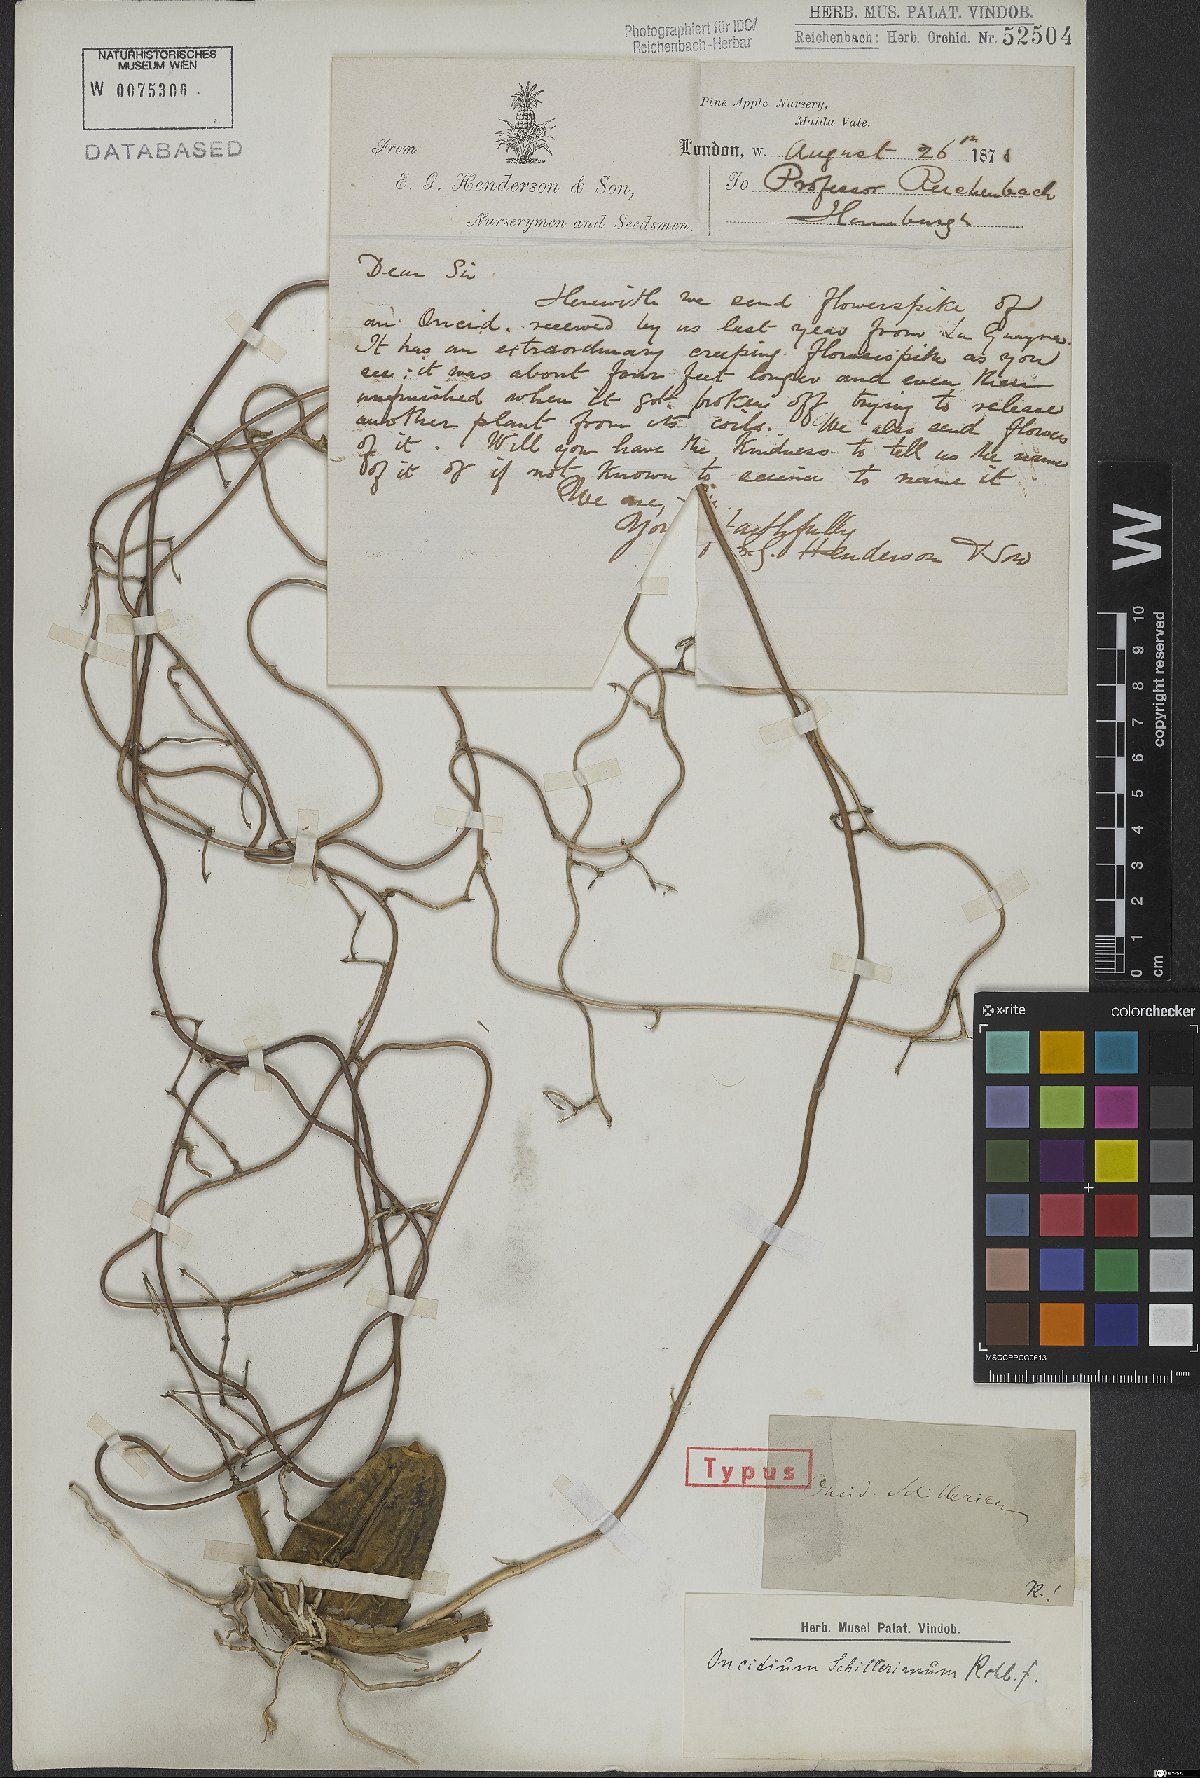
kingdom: Plantae
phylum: Tracheophyta
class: Liliopsida
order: Asparagales
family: Orchidaceae
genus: Oncidium
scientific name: Oncidium schillerianum
